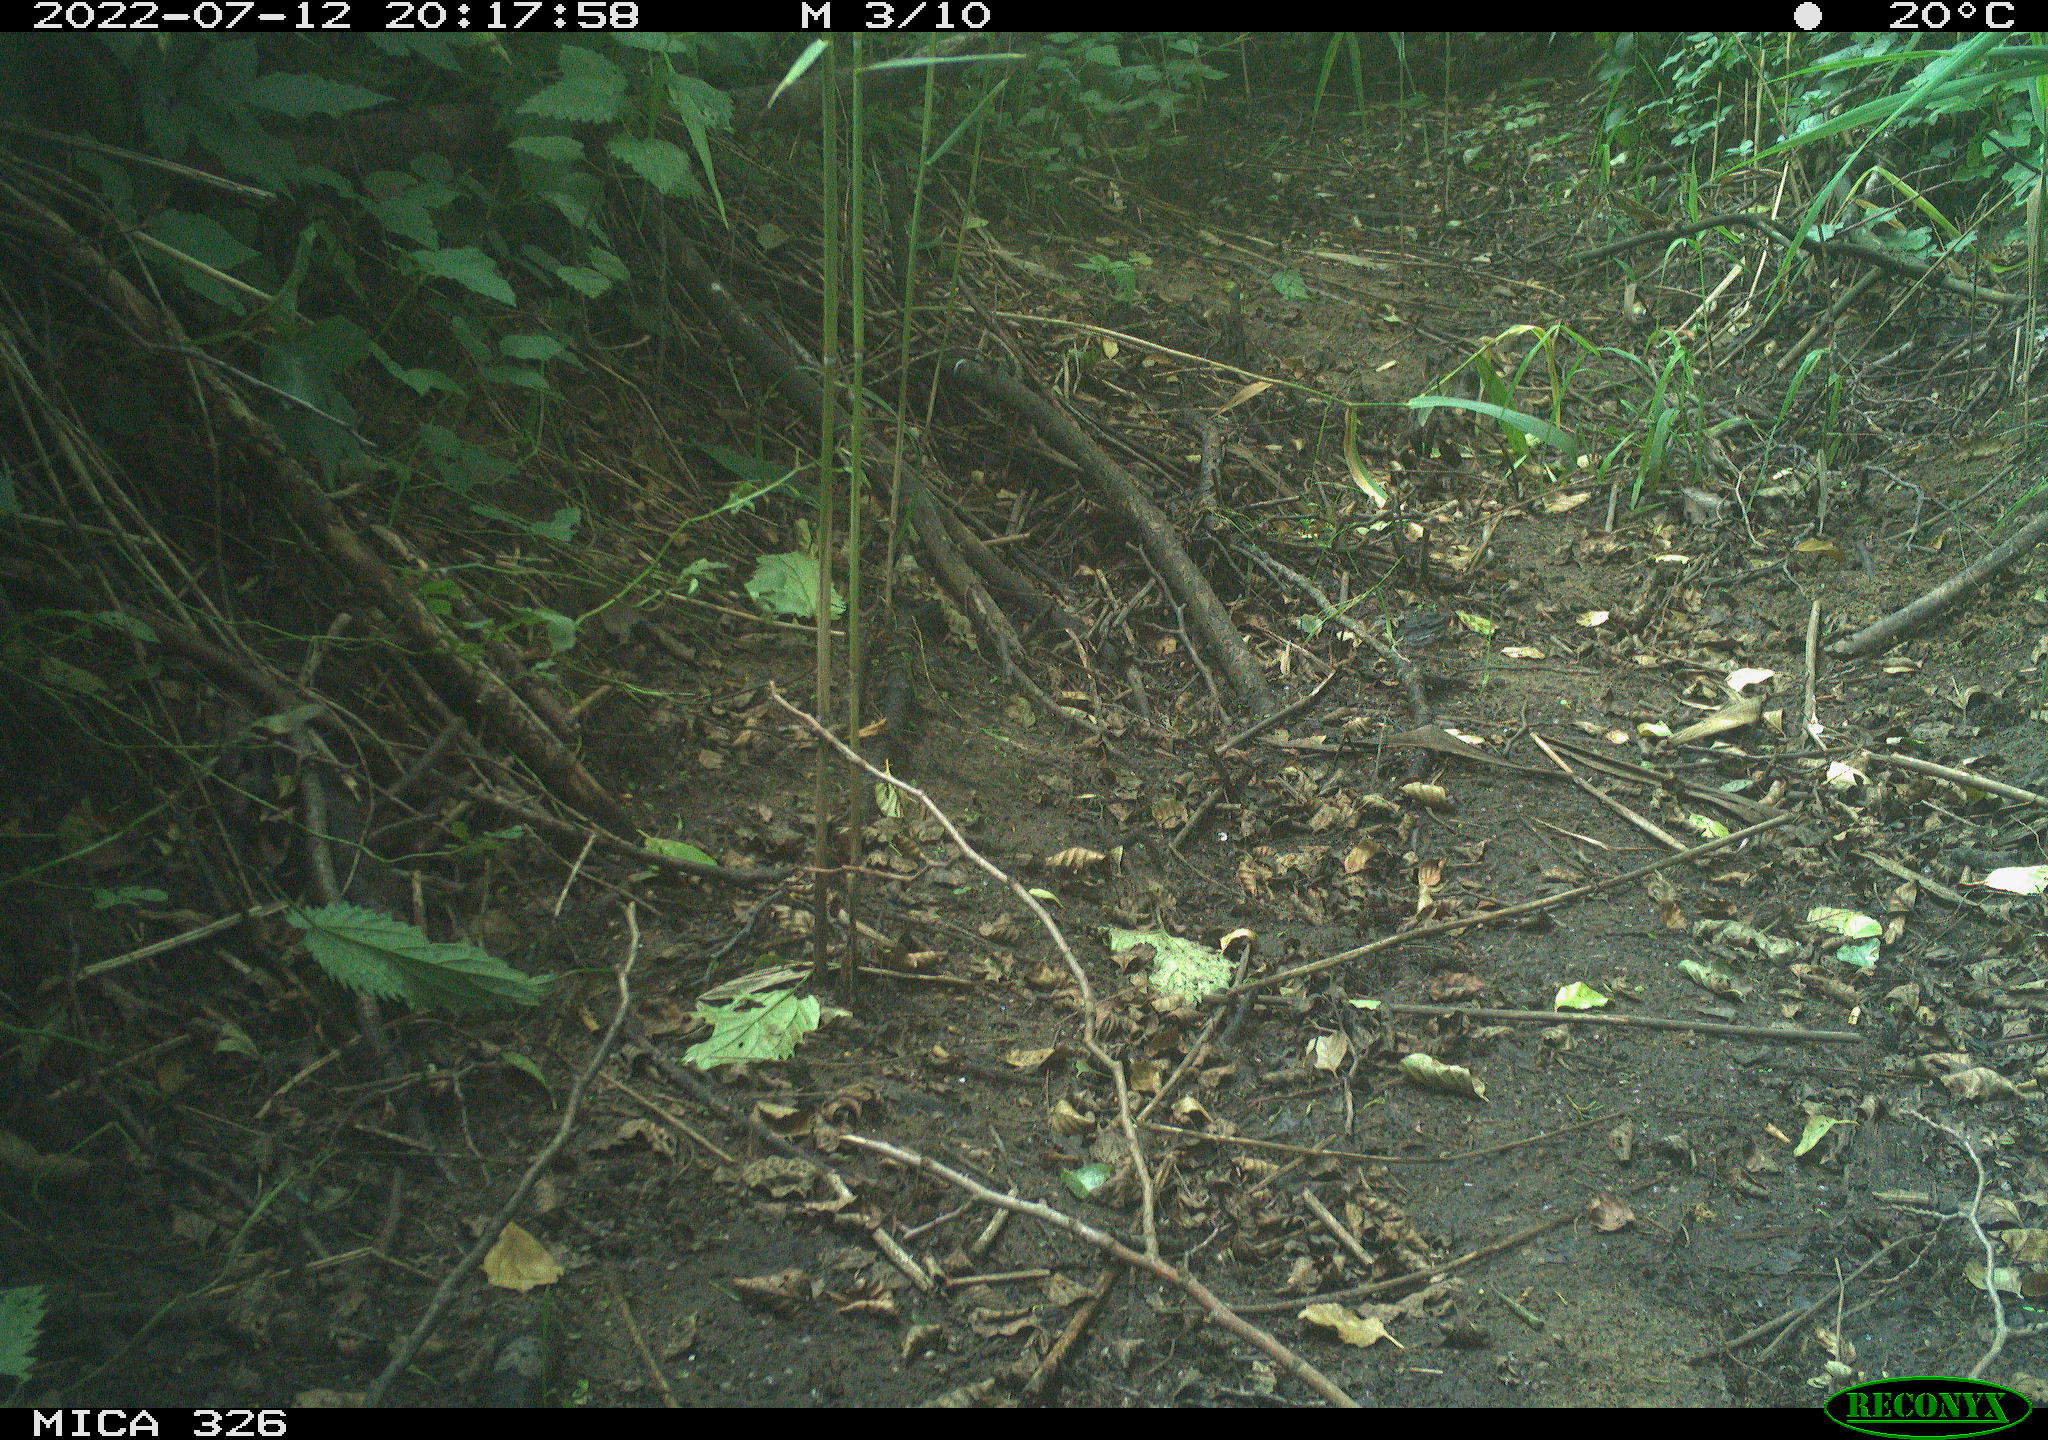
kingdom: Animalia
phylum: Chordata
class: Mammalia
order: Rodentia
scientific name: Rodentia
